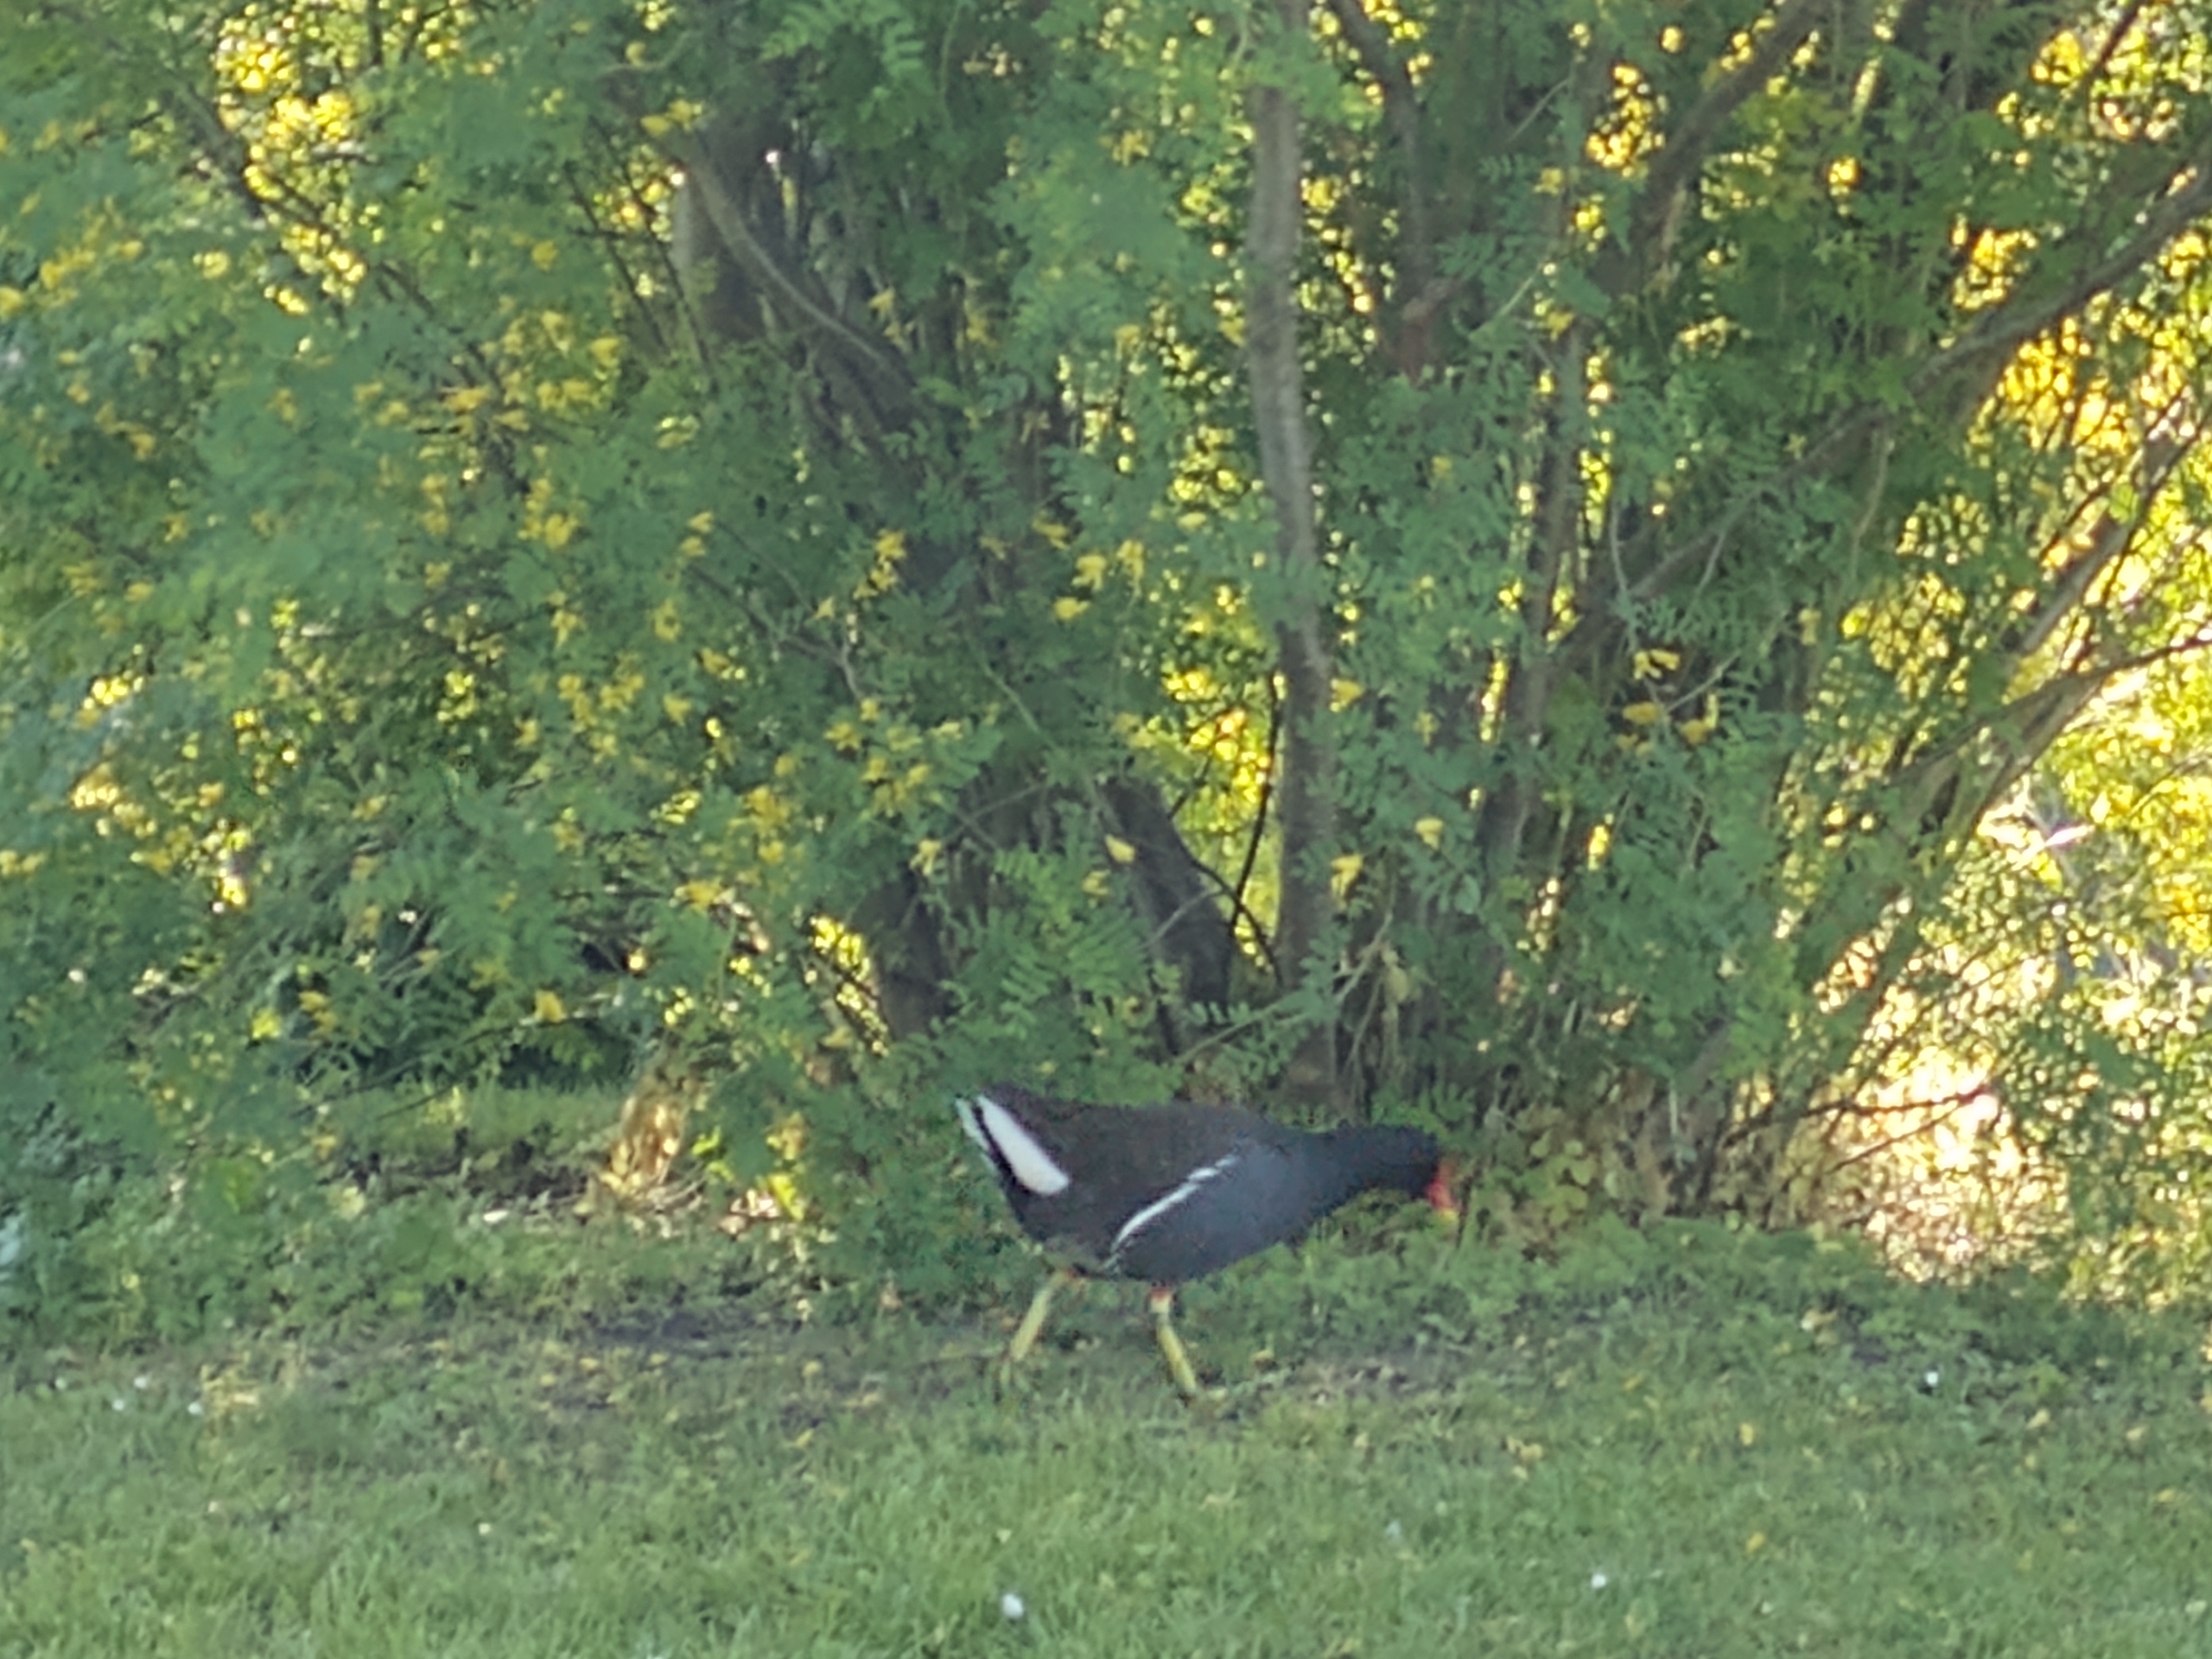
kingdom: Animalia
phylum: Chordata
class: Aves
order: Gruiformes
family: Rallidae
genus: Gallinula
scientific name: Gallinula chloropus
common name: Grønbenet rørhøne
